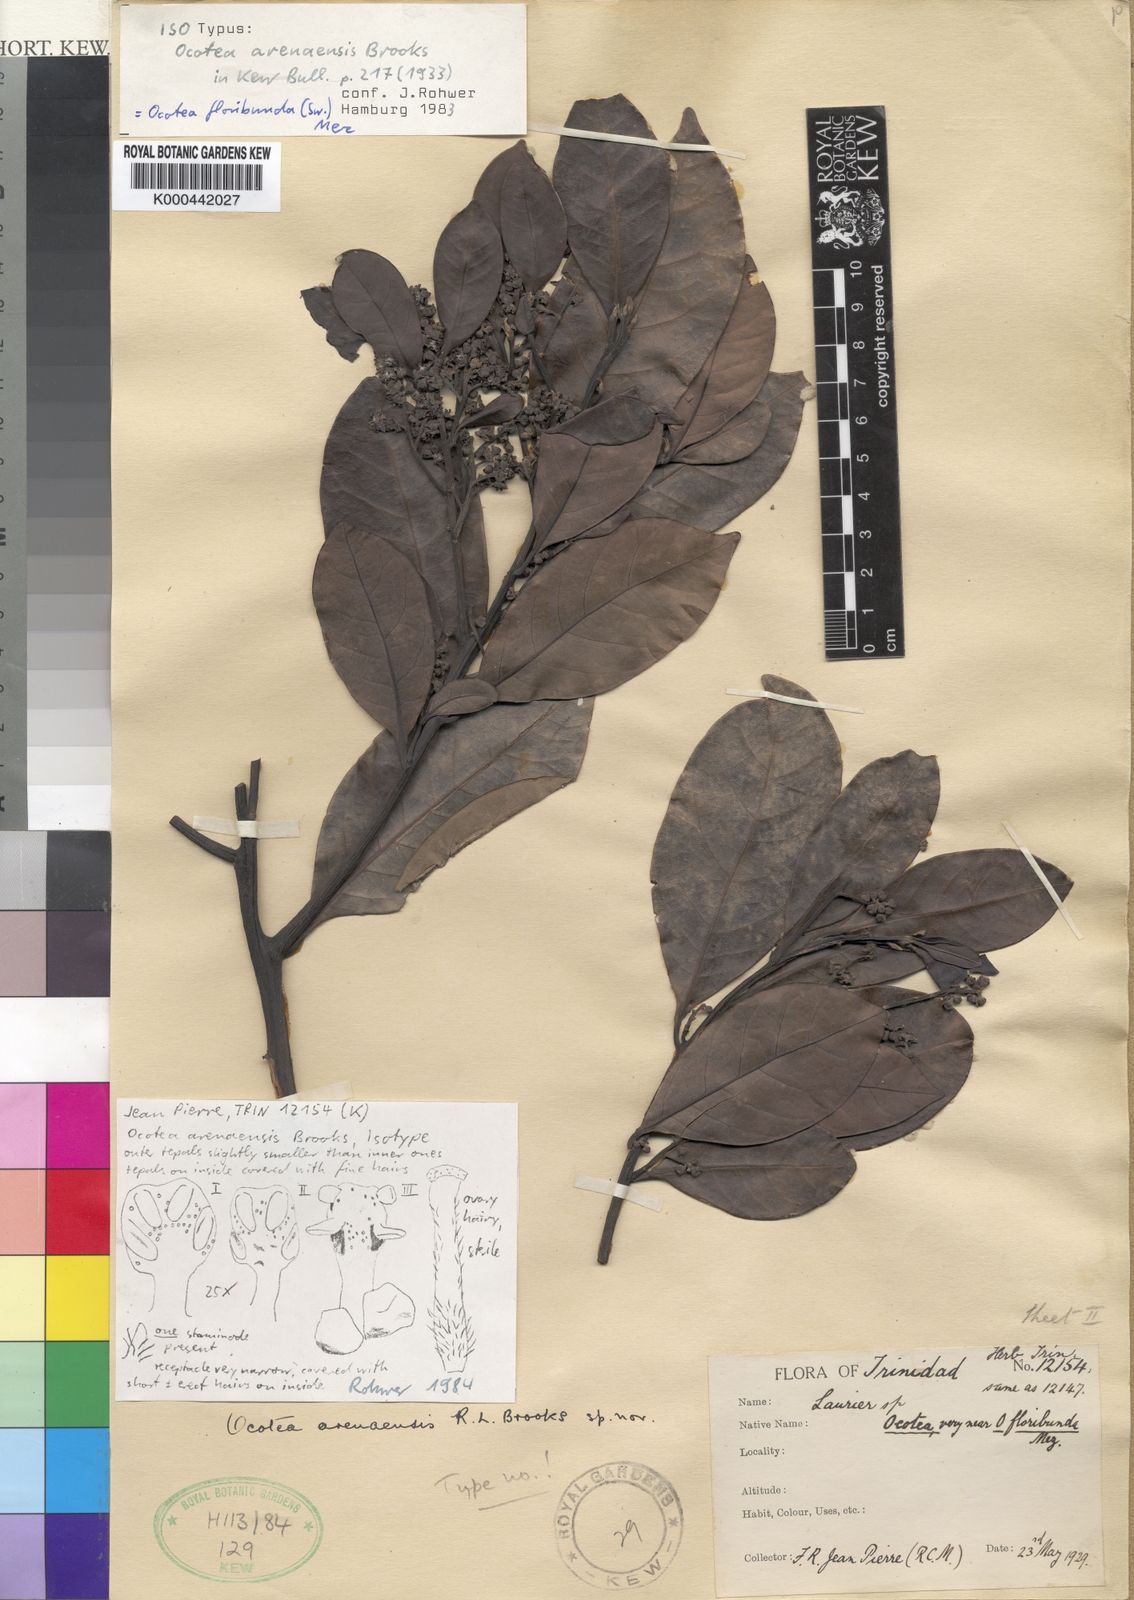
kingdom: Plantae
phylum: Tracheophyta
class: Magnoliopsida
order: Laurales
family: Lauraceae
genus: Ocotea
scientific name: Ocotea floribunda
